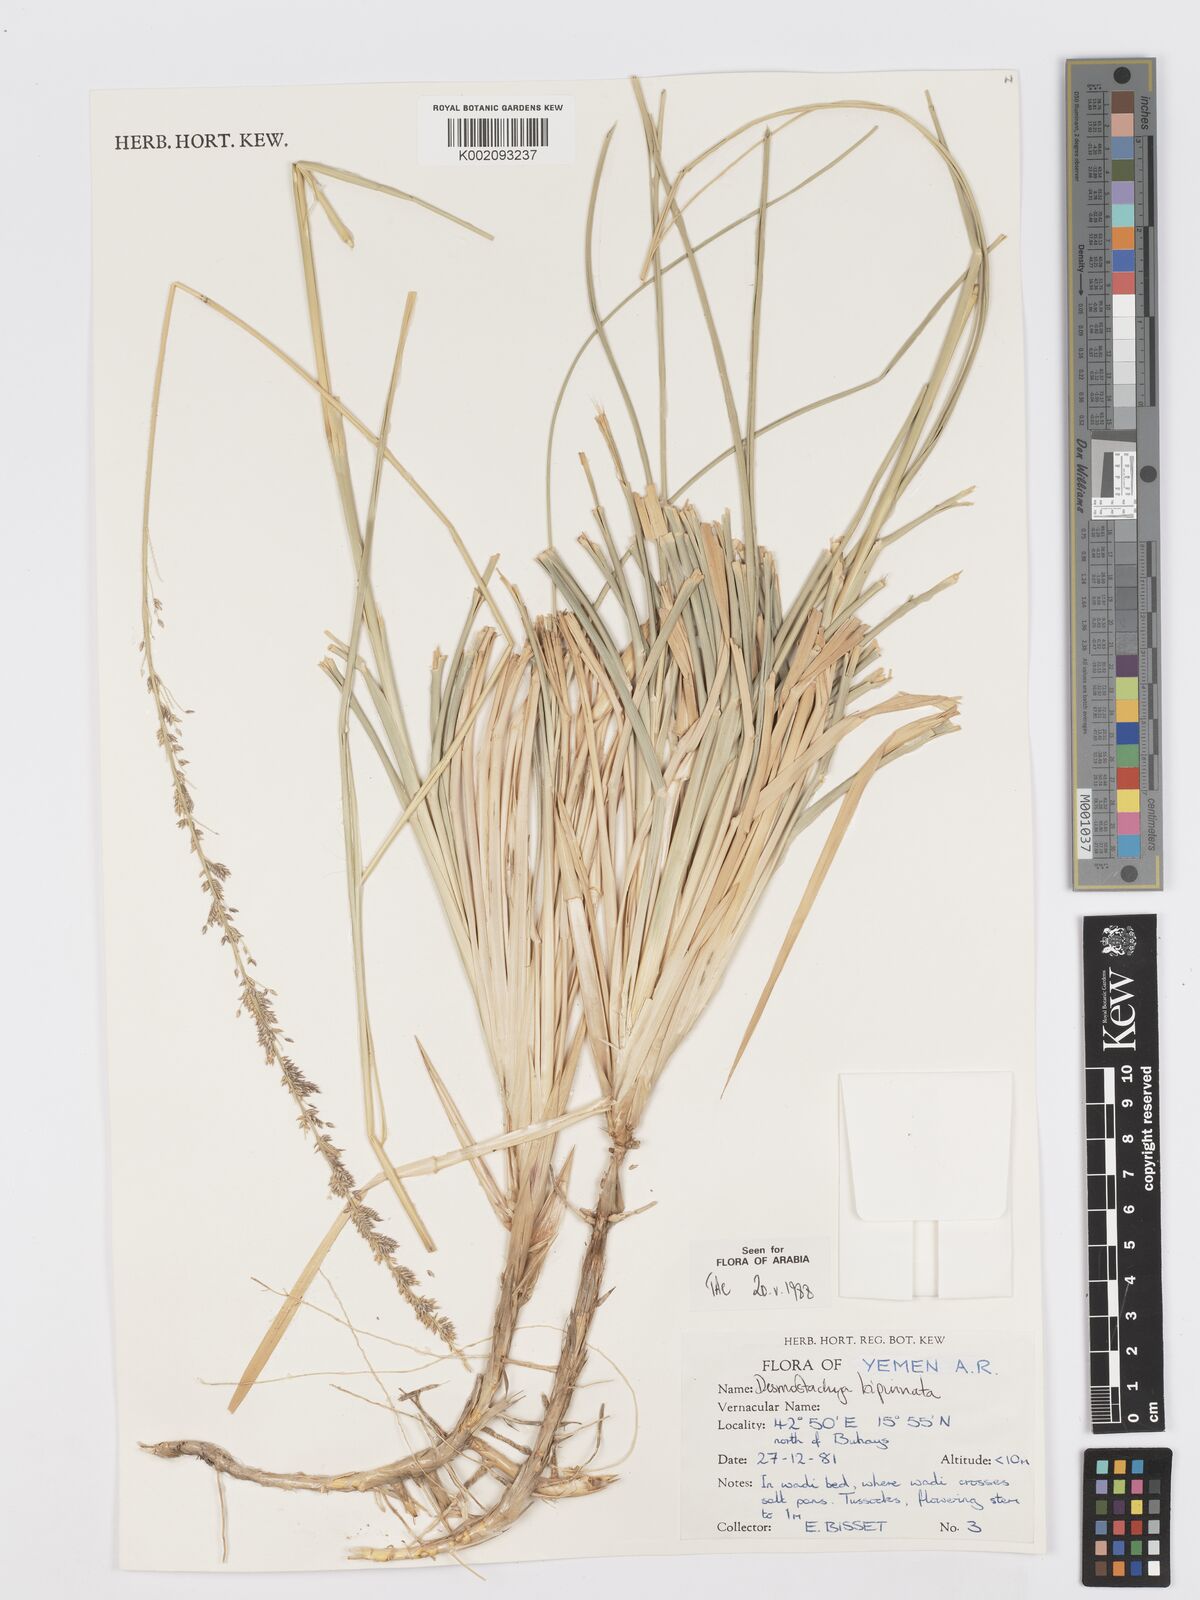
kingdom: Plantae
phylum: Tracheophyta
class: Liliopsida
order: Poales
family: Poaceae
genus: Desmostachya
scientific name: Desmostachya bipinnata
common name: Crowfoot grass
